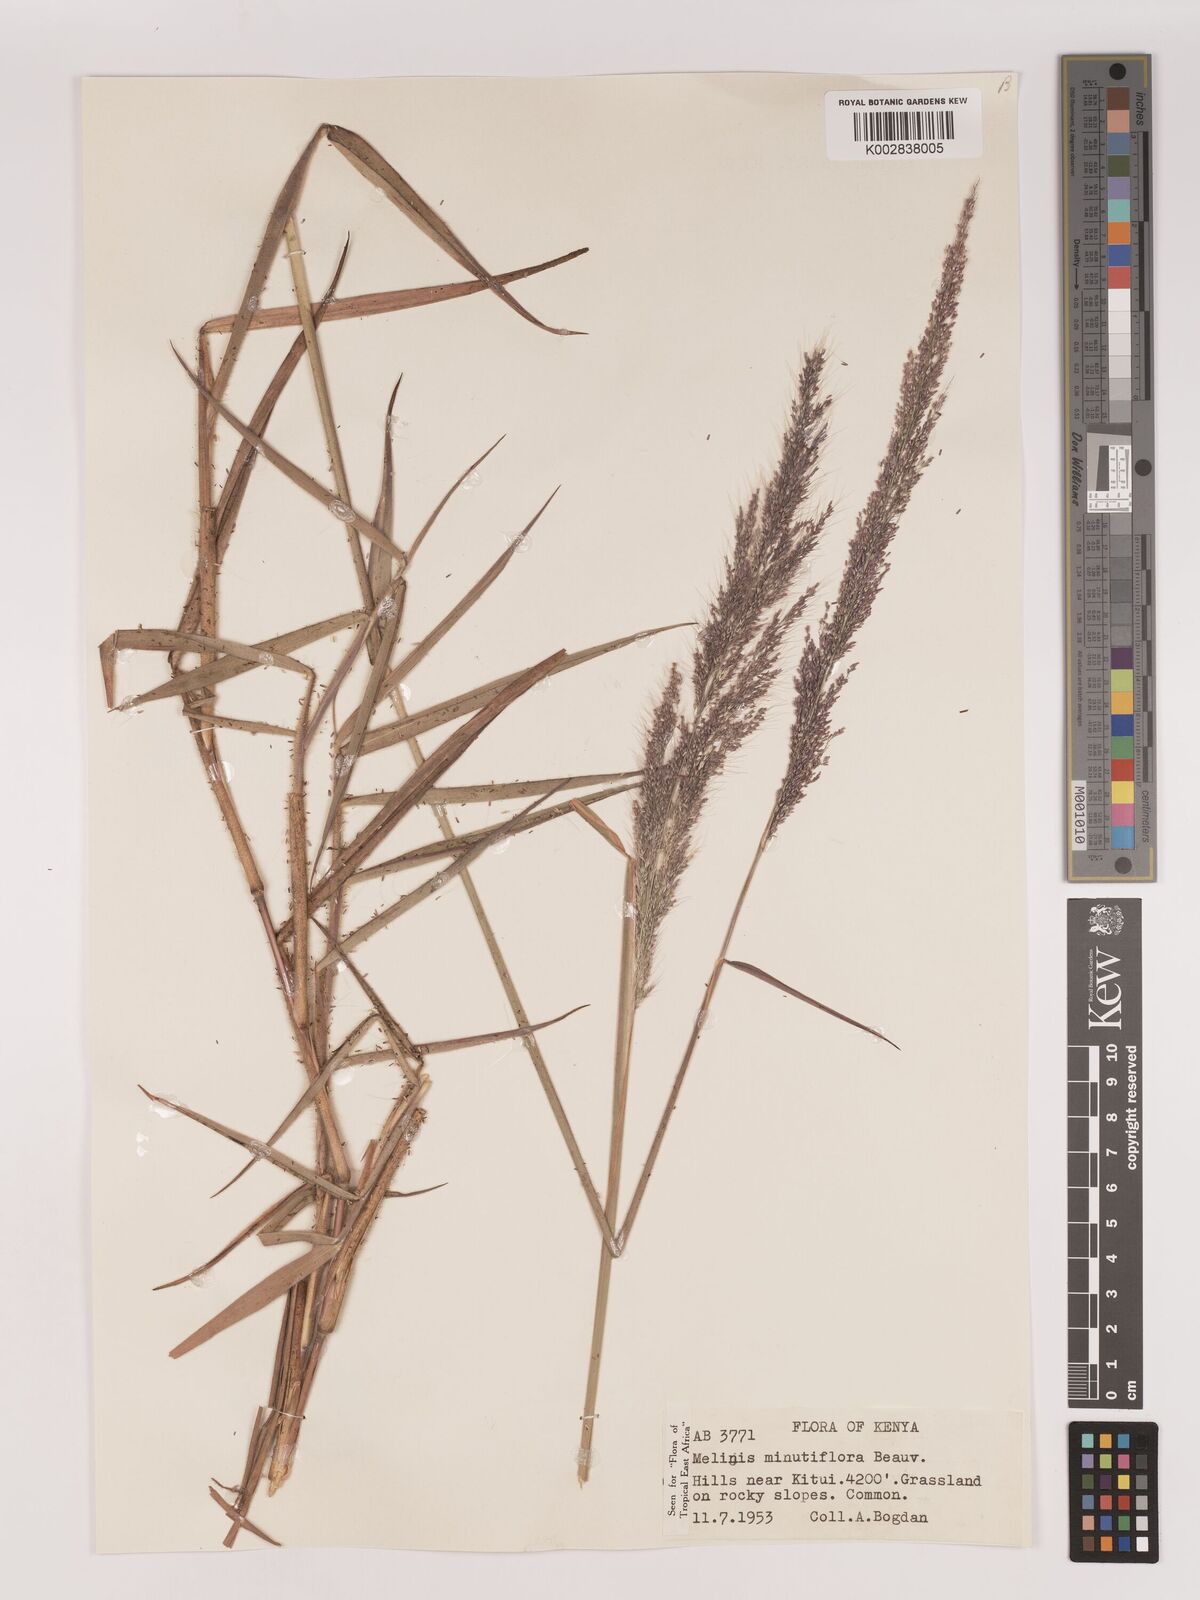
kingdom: Plantae
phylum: Tracheophyta
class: Liliopsida
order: Poales
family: Poaceae
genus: Melinis
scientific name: Melinis minutiflora
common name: Molassesgrass
